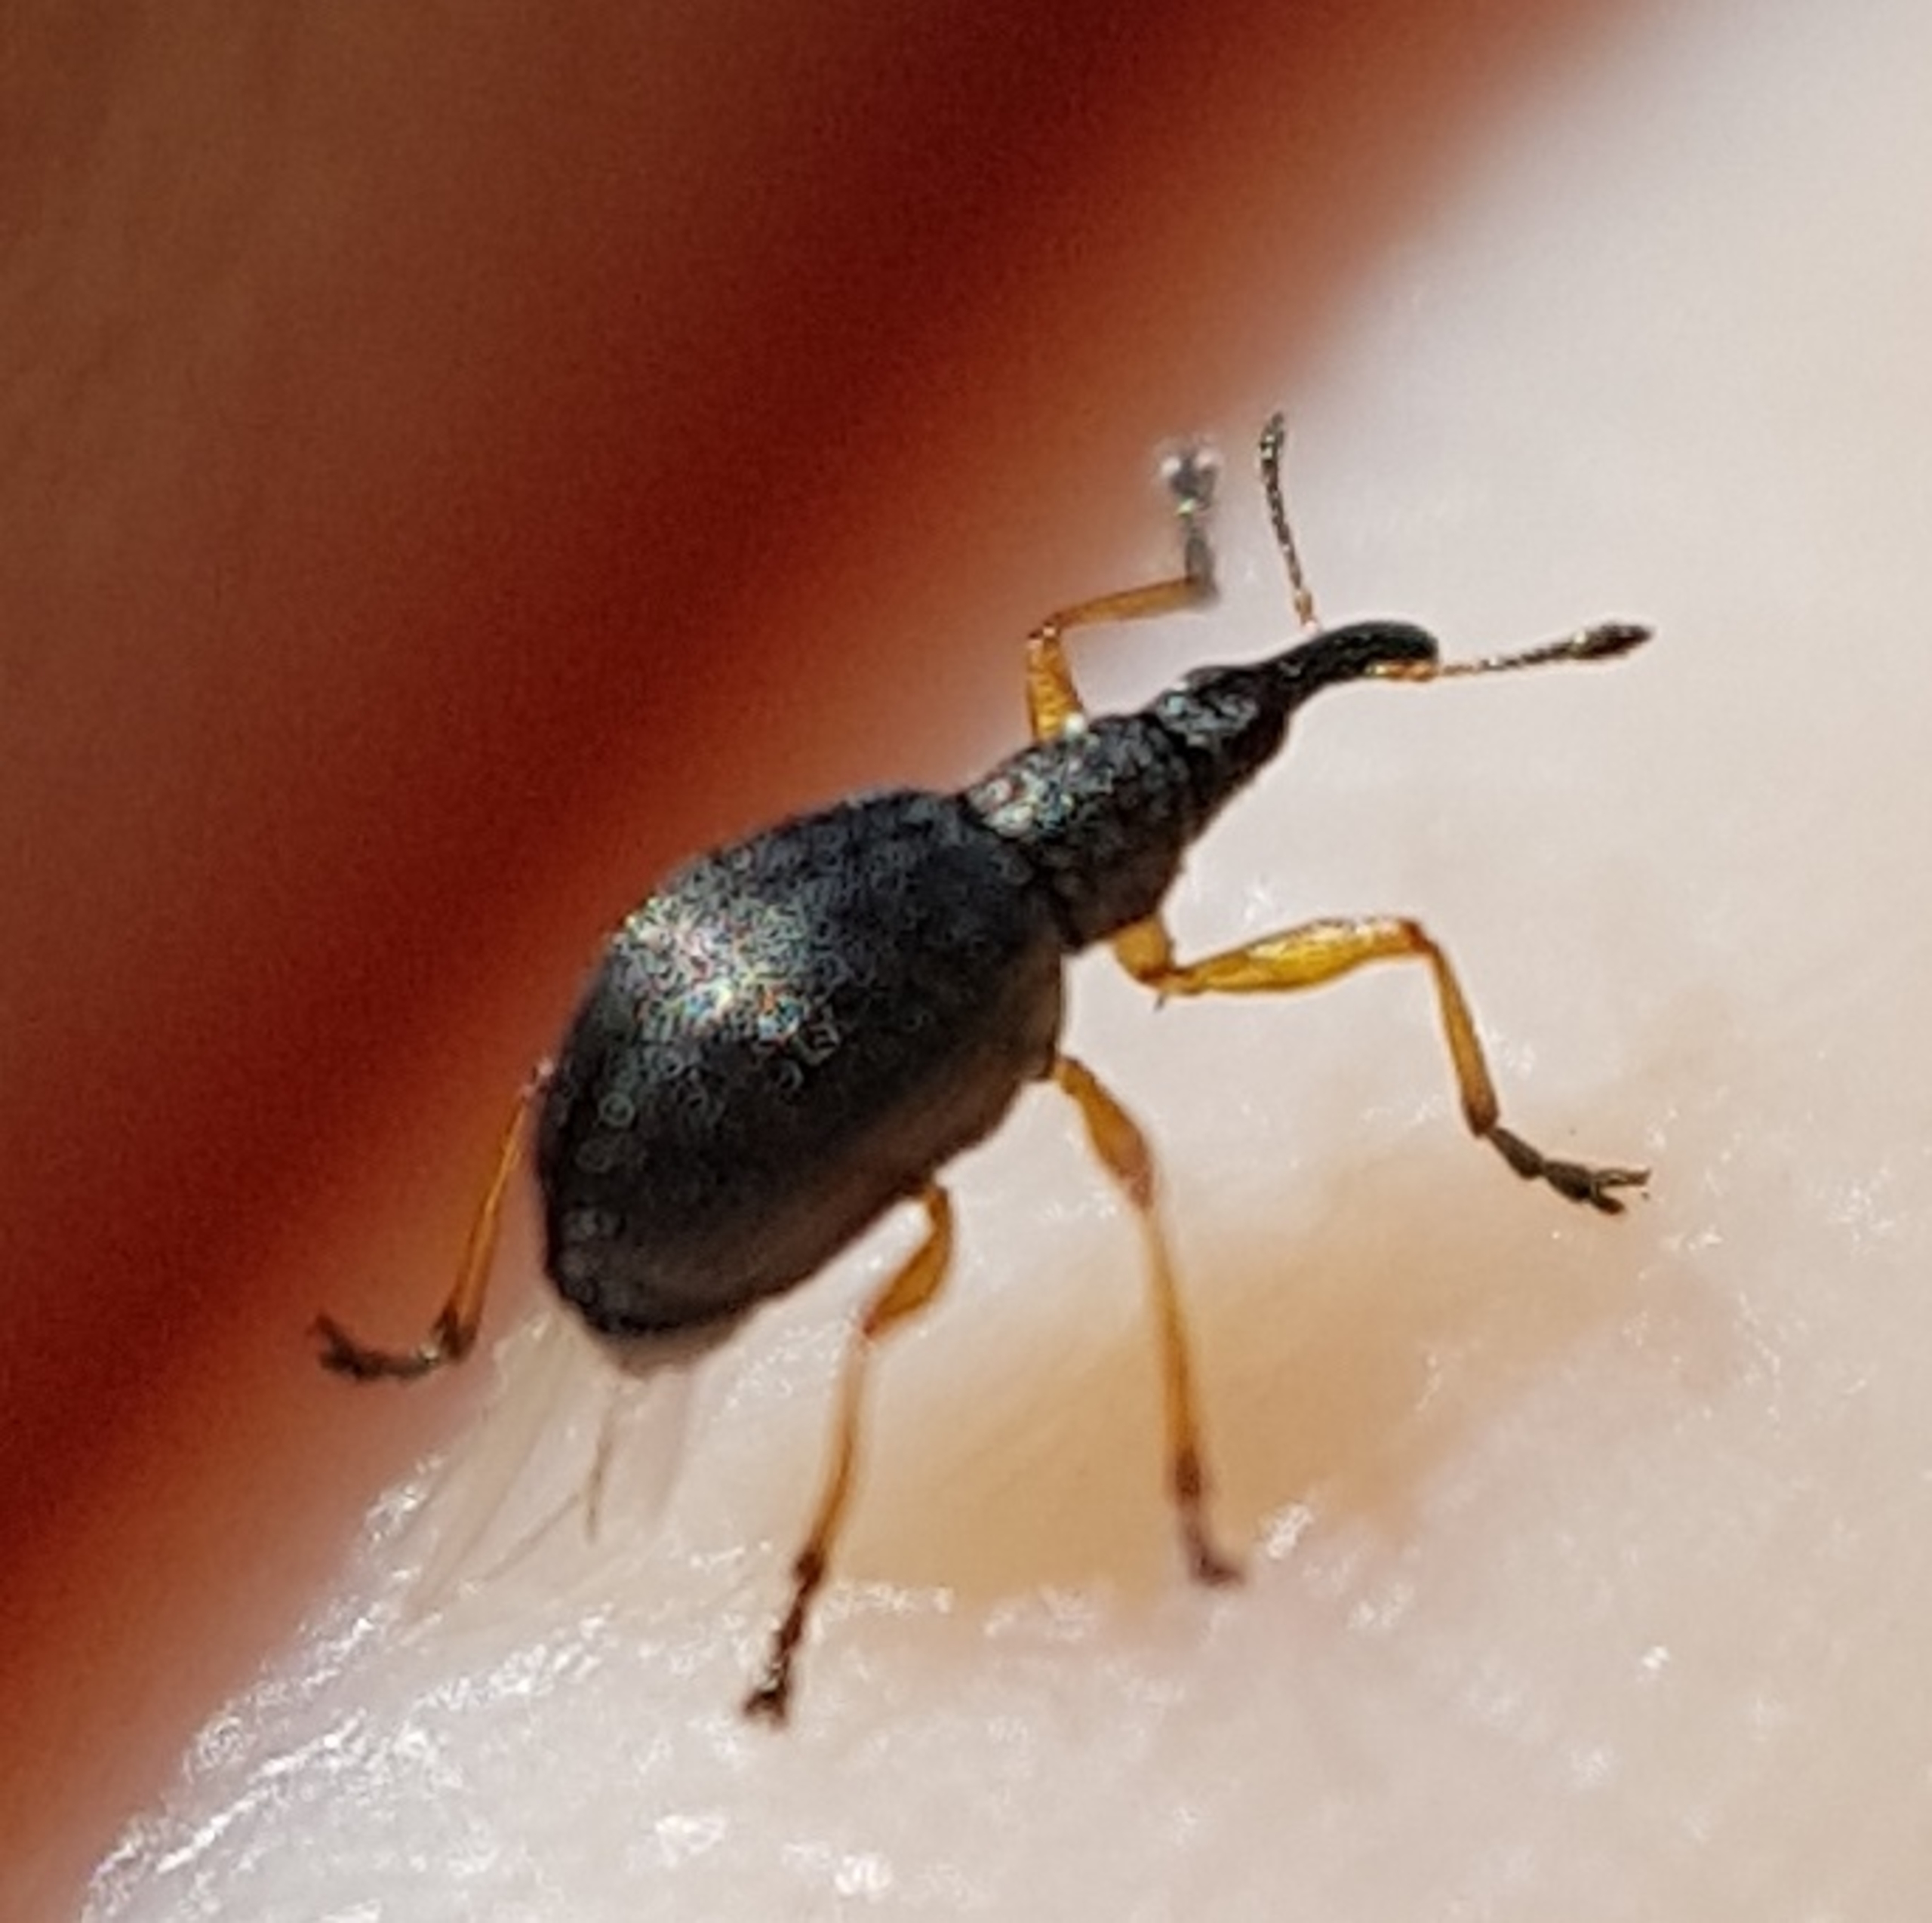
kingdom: Animalia
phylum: Arthropoda
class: Insecta
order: Coleoptera
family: Apionidae
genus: Protapion
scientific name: Protapion fulvipes
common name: Hvidkløversnudebille
